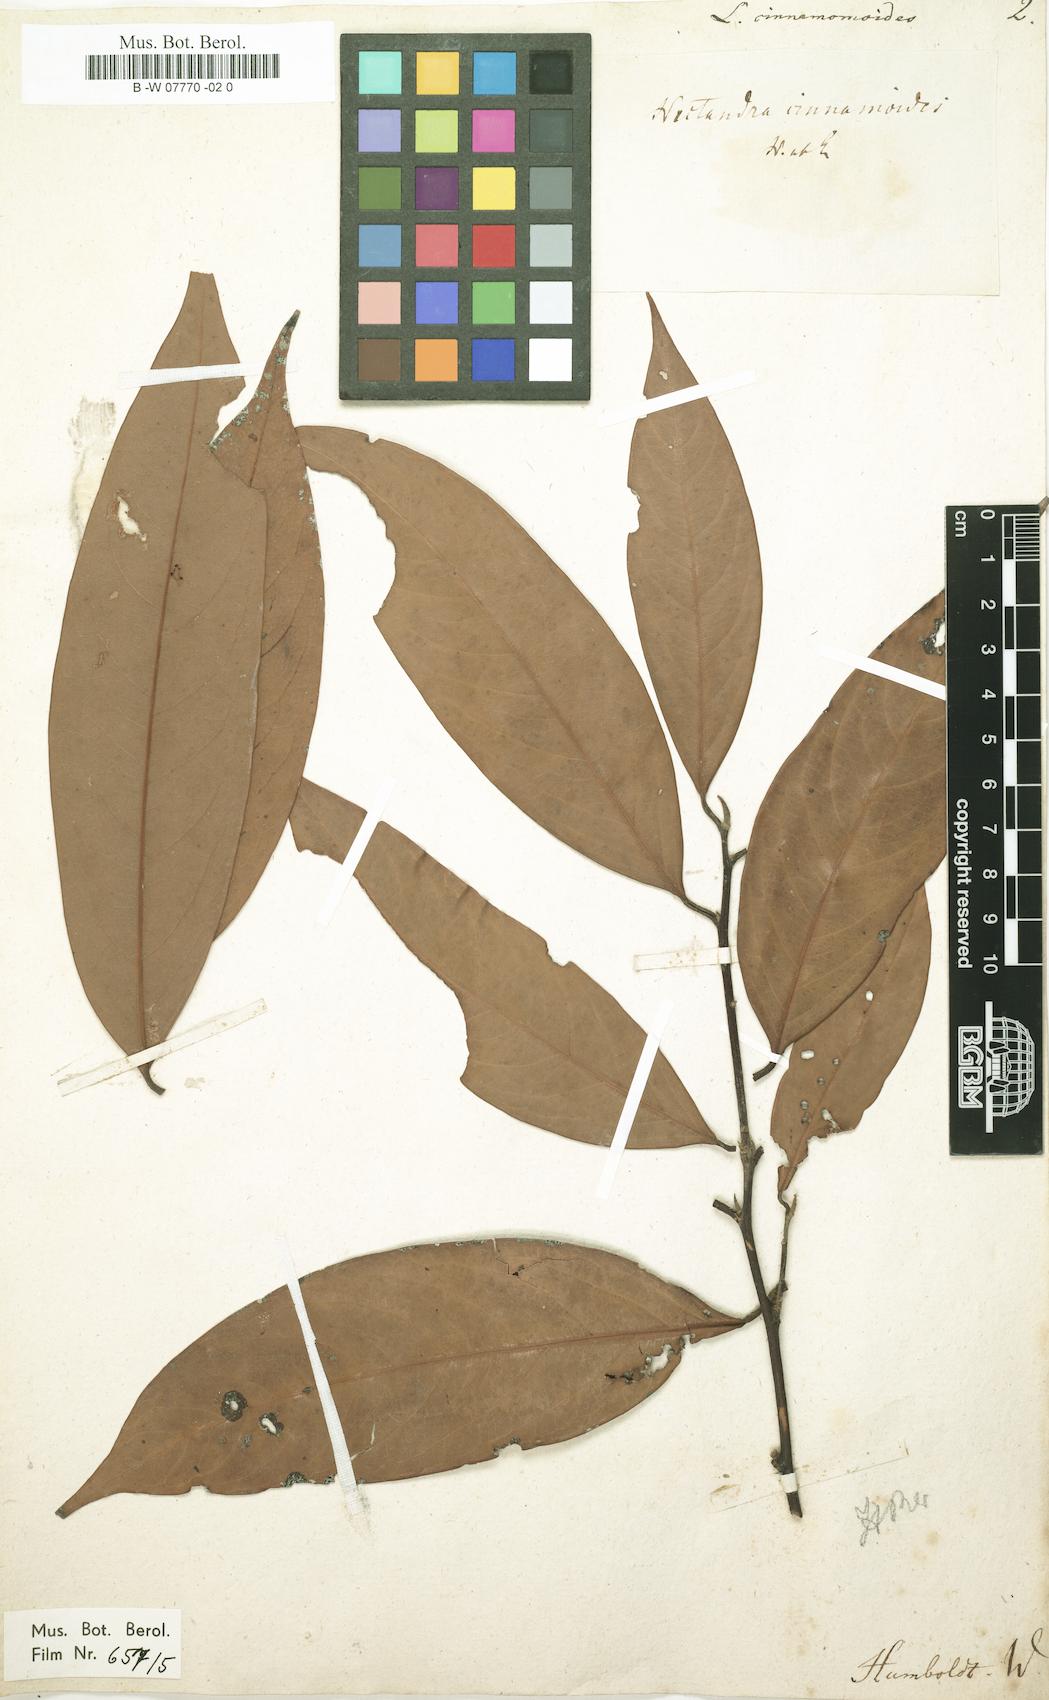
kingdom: Plantae
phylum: Tracheophyta
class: Magnoliopsida
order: Laurales
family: Lauraceae
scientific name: Lauraceae
